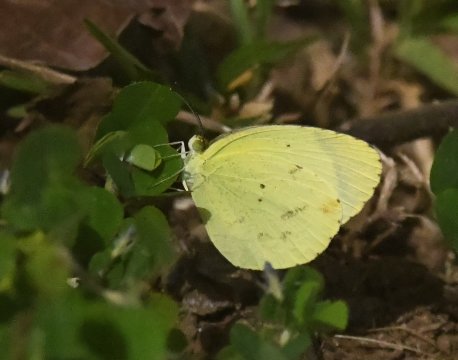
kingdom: Animalia
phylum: Arthropoda
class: Insecta
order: Lepidoptera
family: Pieridae
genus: Pyrisitia
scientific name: Pyrisitia nise
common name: Mimosa Yellow
